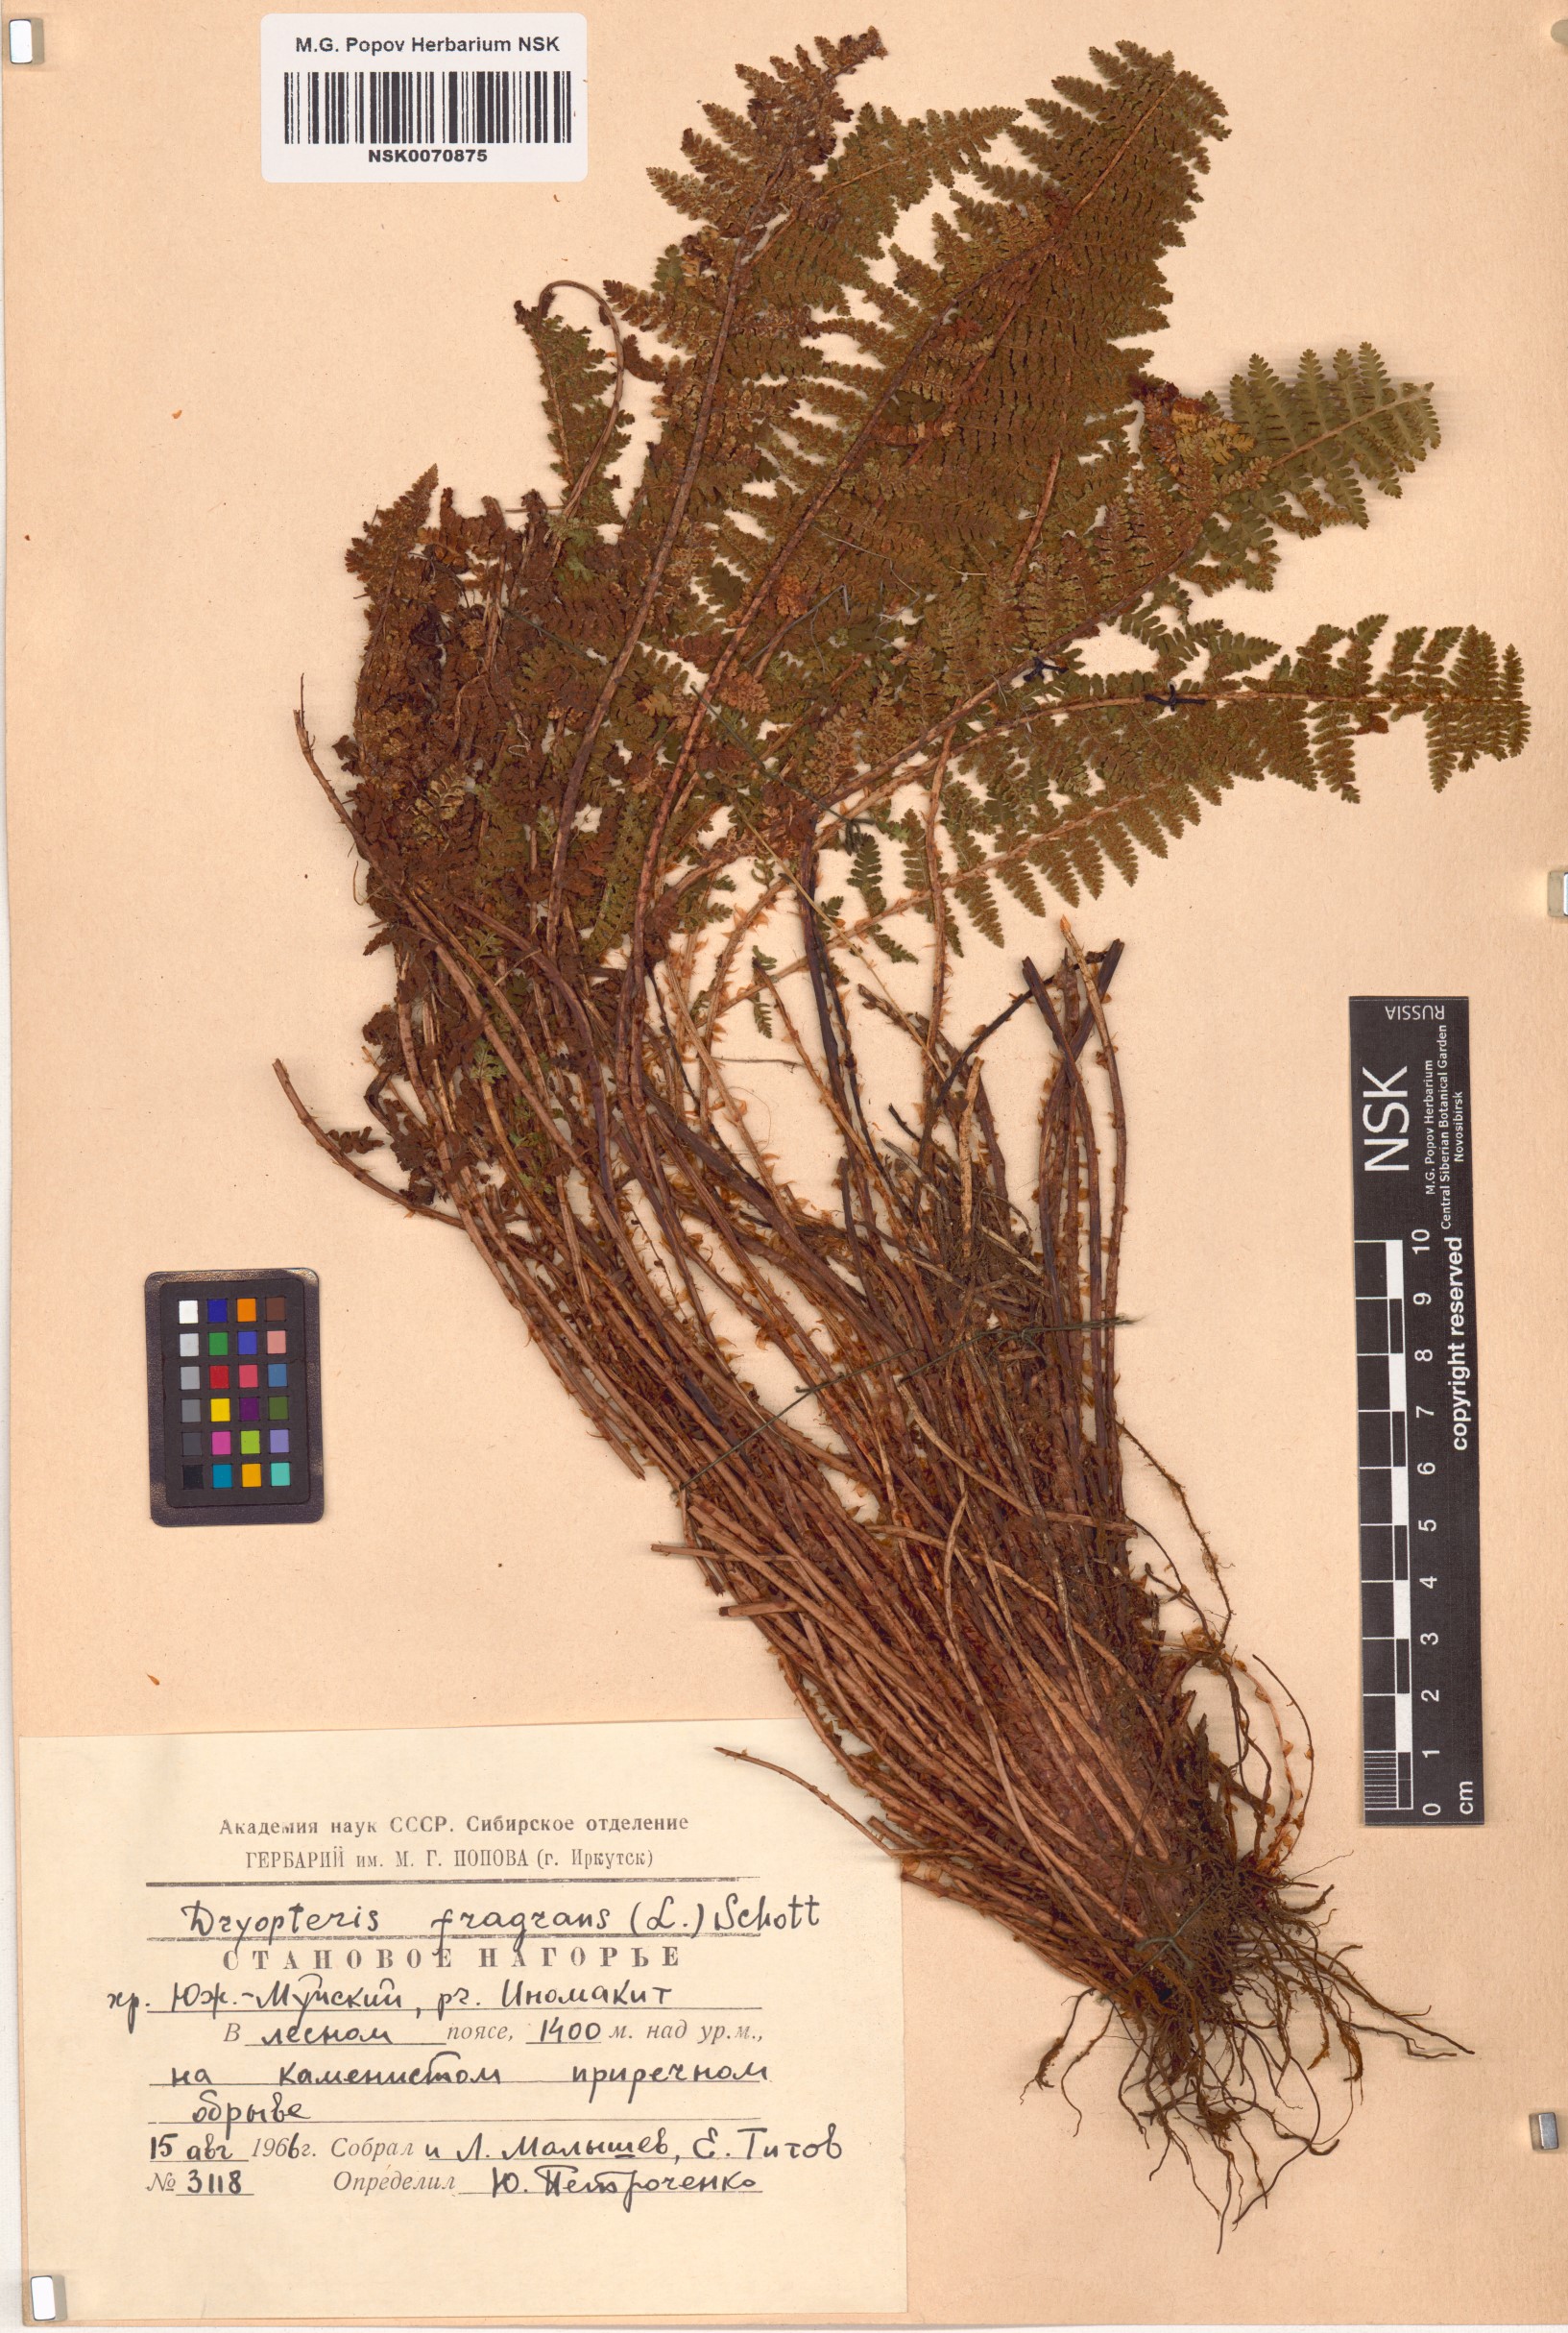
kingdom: Plantae
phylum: Tracheophyta
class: Polypodiopsida
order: Polypodiales
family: Dryopteridaceae
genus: Dryopteris
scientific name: Dryopteris fragrans
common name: Fragrant wood fern
